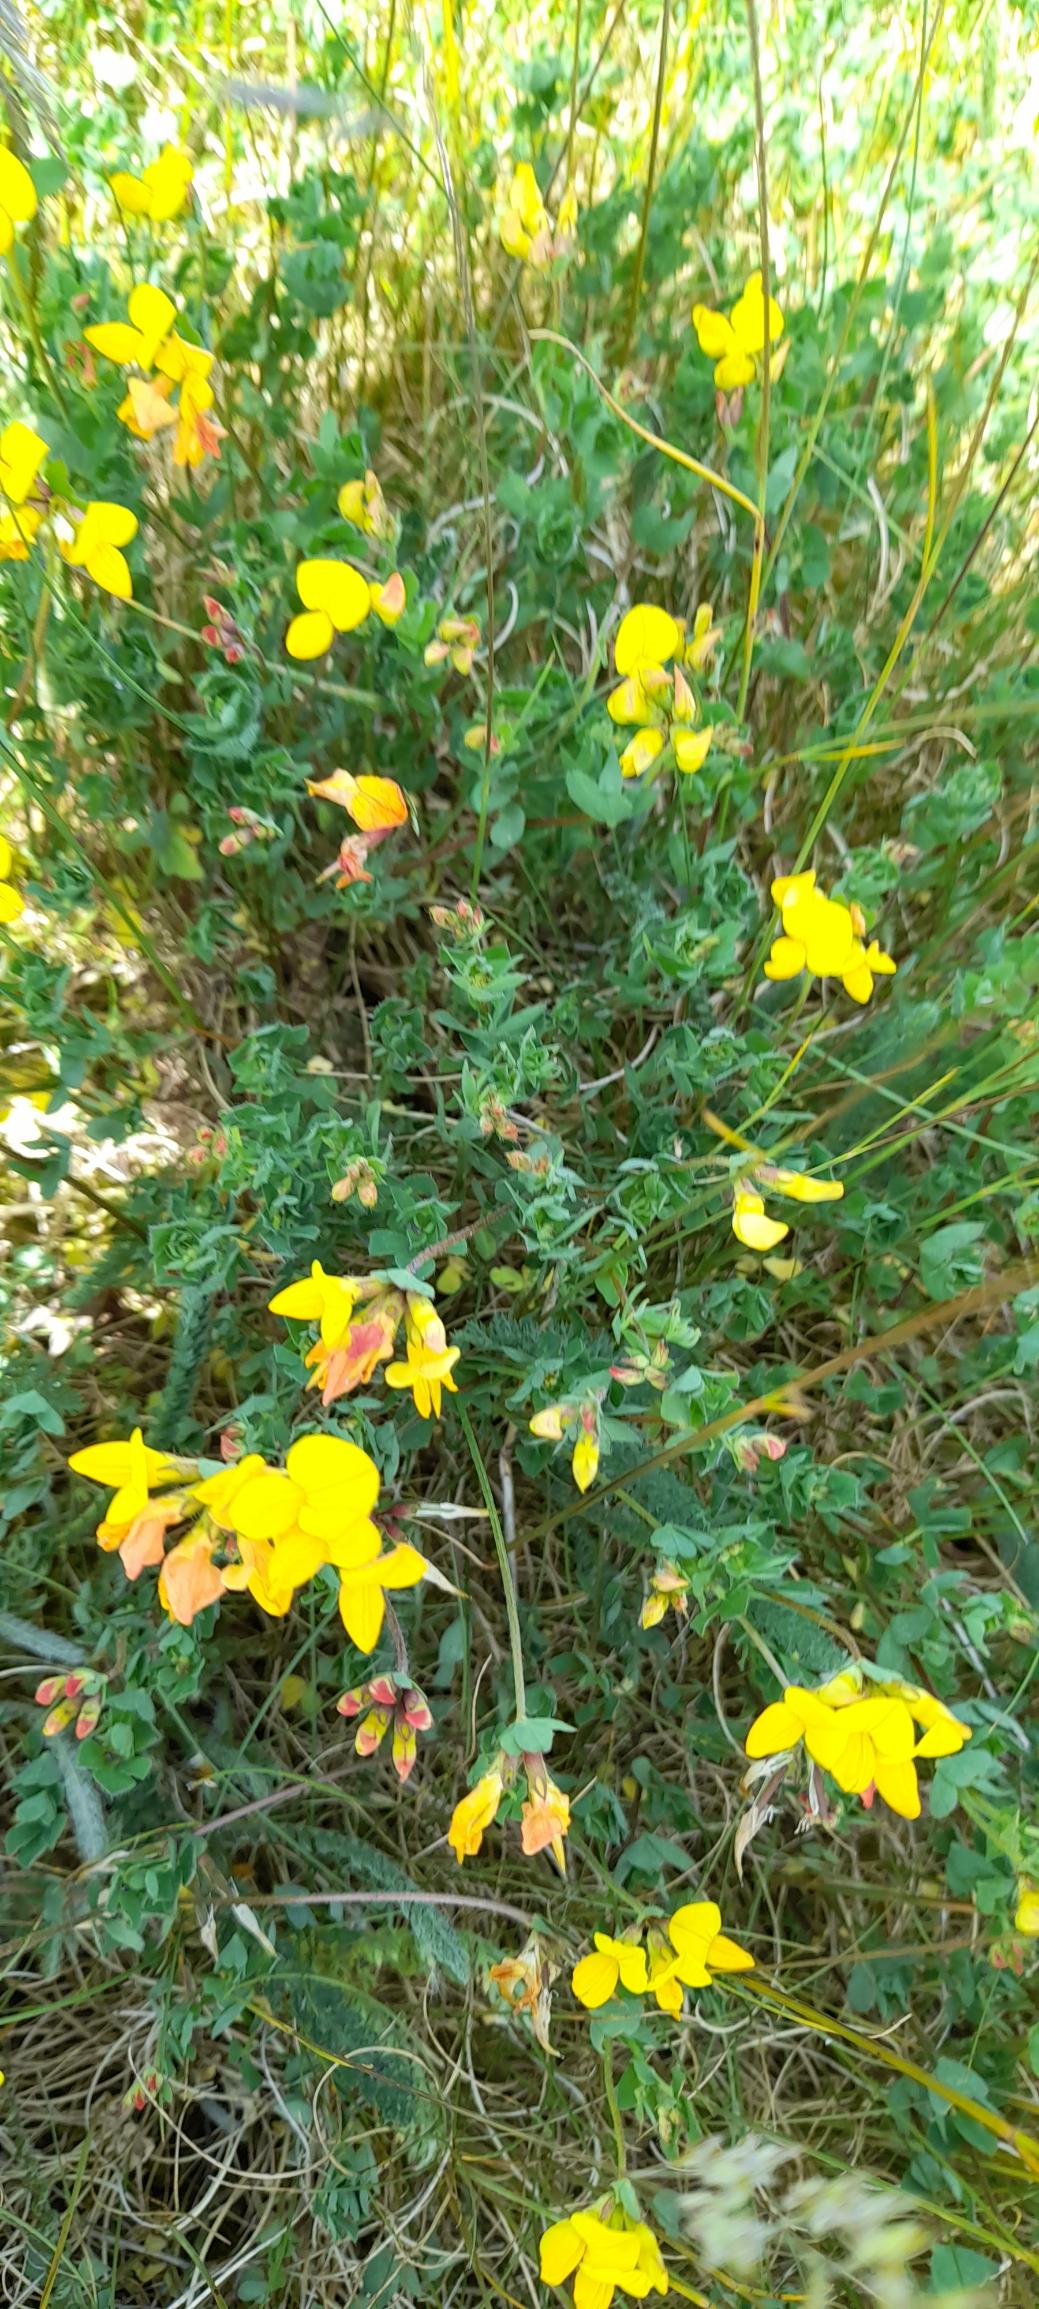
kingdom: Plantae
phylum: Tracheophyta
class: Magnoliopsida
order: Fabales
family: Fabaceae
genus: Lotus
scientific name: Lotus corniculatus
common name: Almindelig kællingetand
